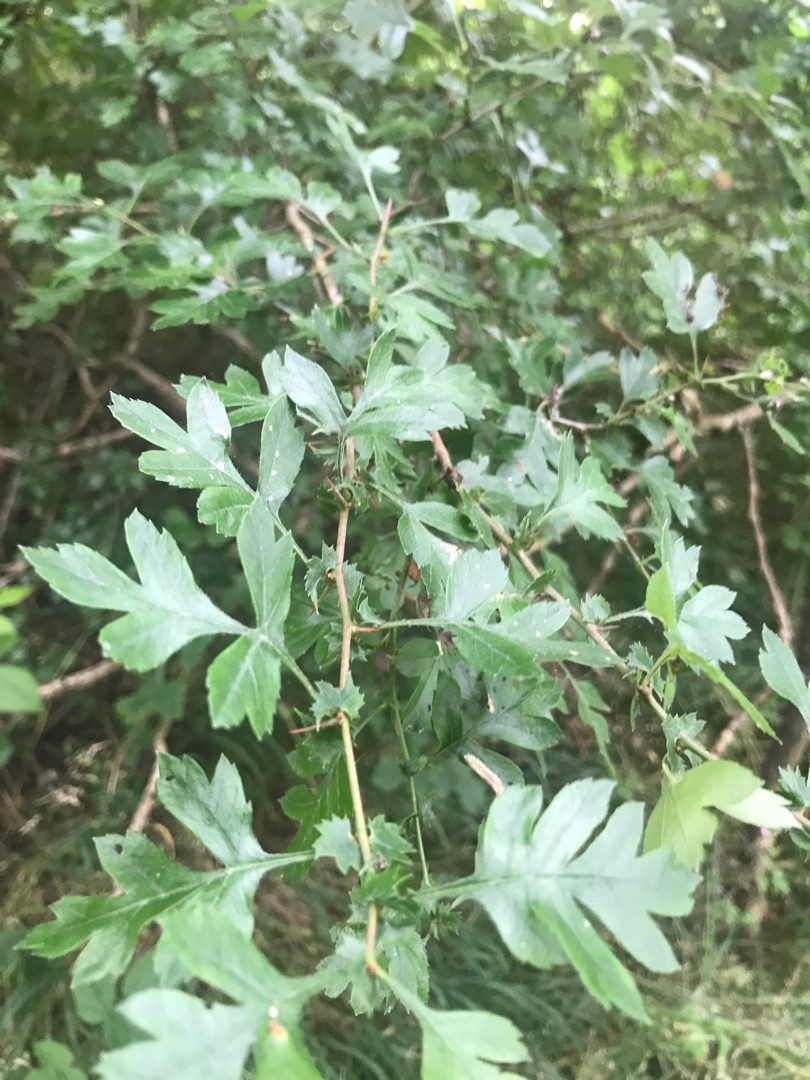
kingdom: Plantae
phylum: Tracheophyta
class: Magnoliopsida
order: Rosales
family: Rosaceae
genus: Crataegus
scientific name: Crataegus monogyna
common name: Engriflet hvidtjørn
